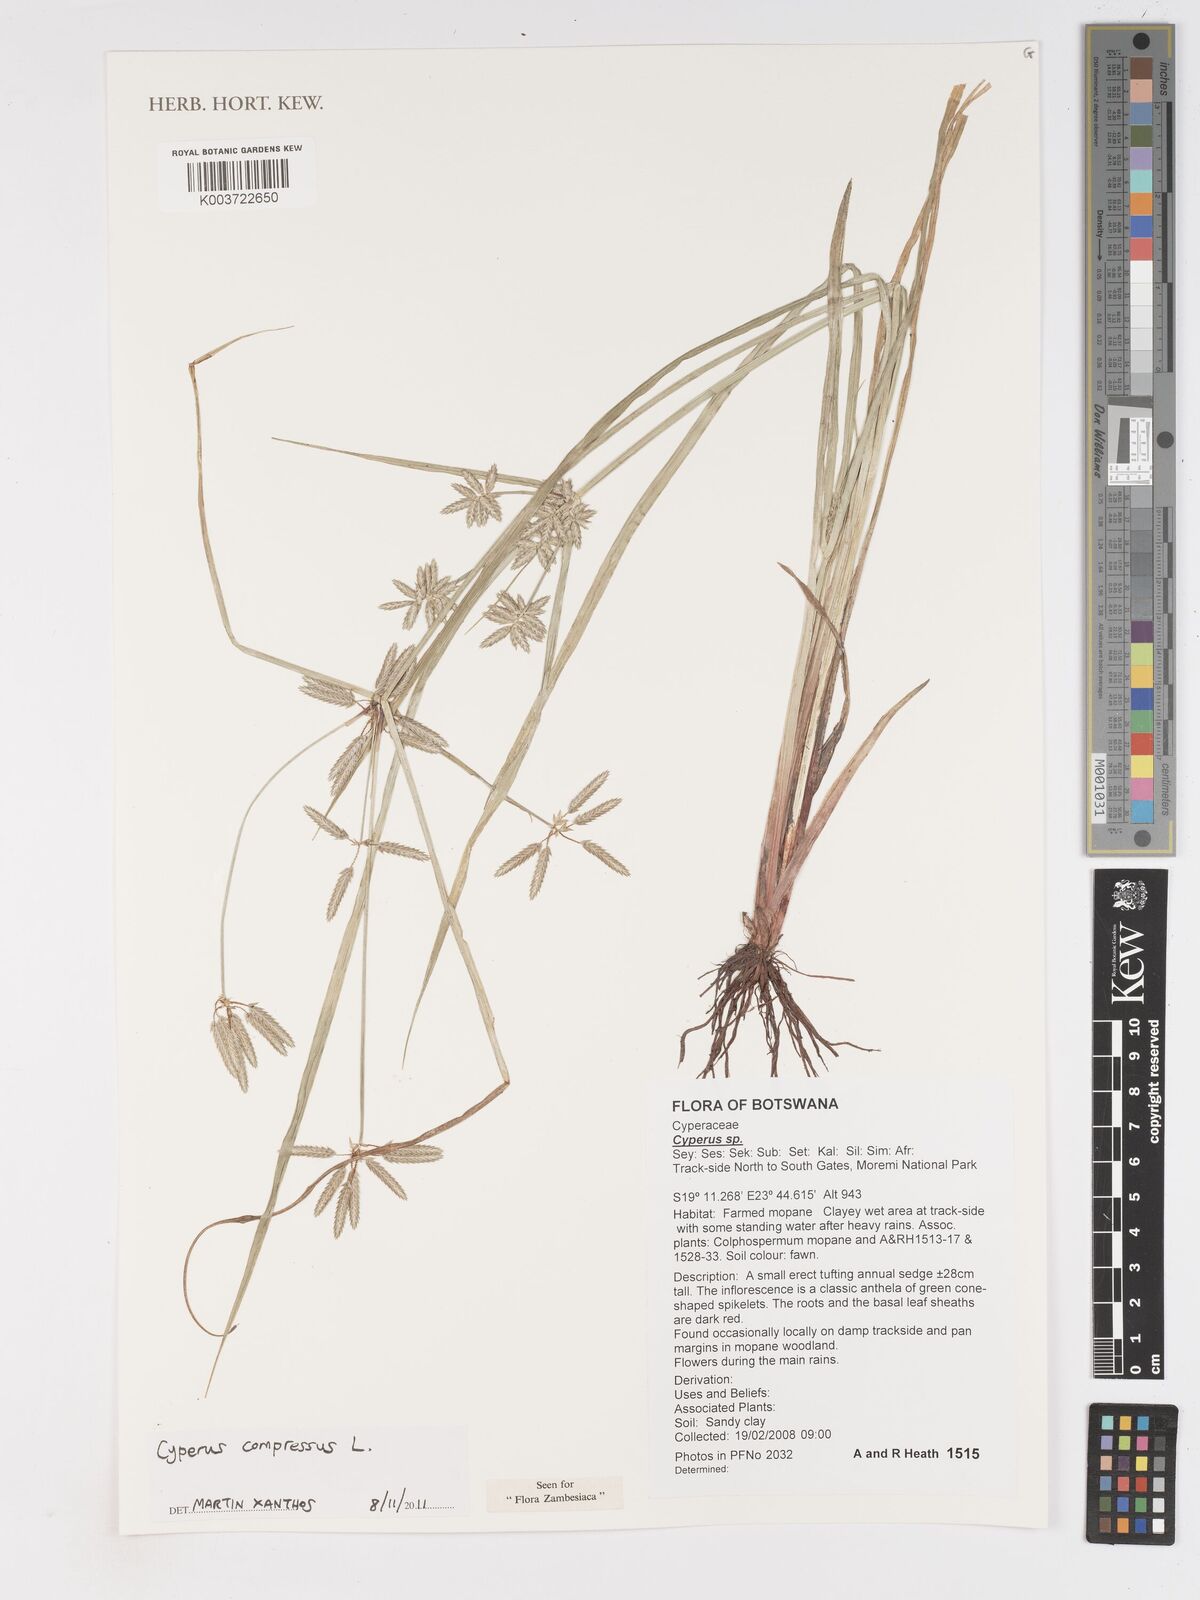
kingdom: Plantae
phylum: Tracheophyta
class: Liliopsida
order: Poales
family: Cyperaceae
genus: Cyperus
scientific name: Cyperus compressus
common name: Poorland flatsedge
